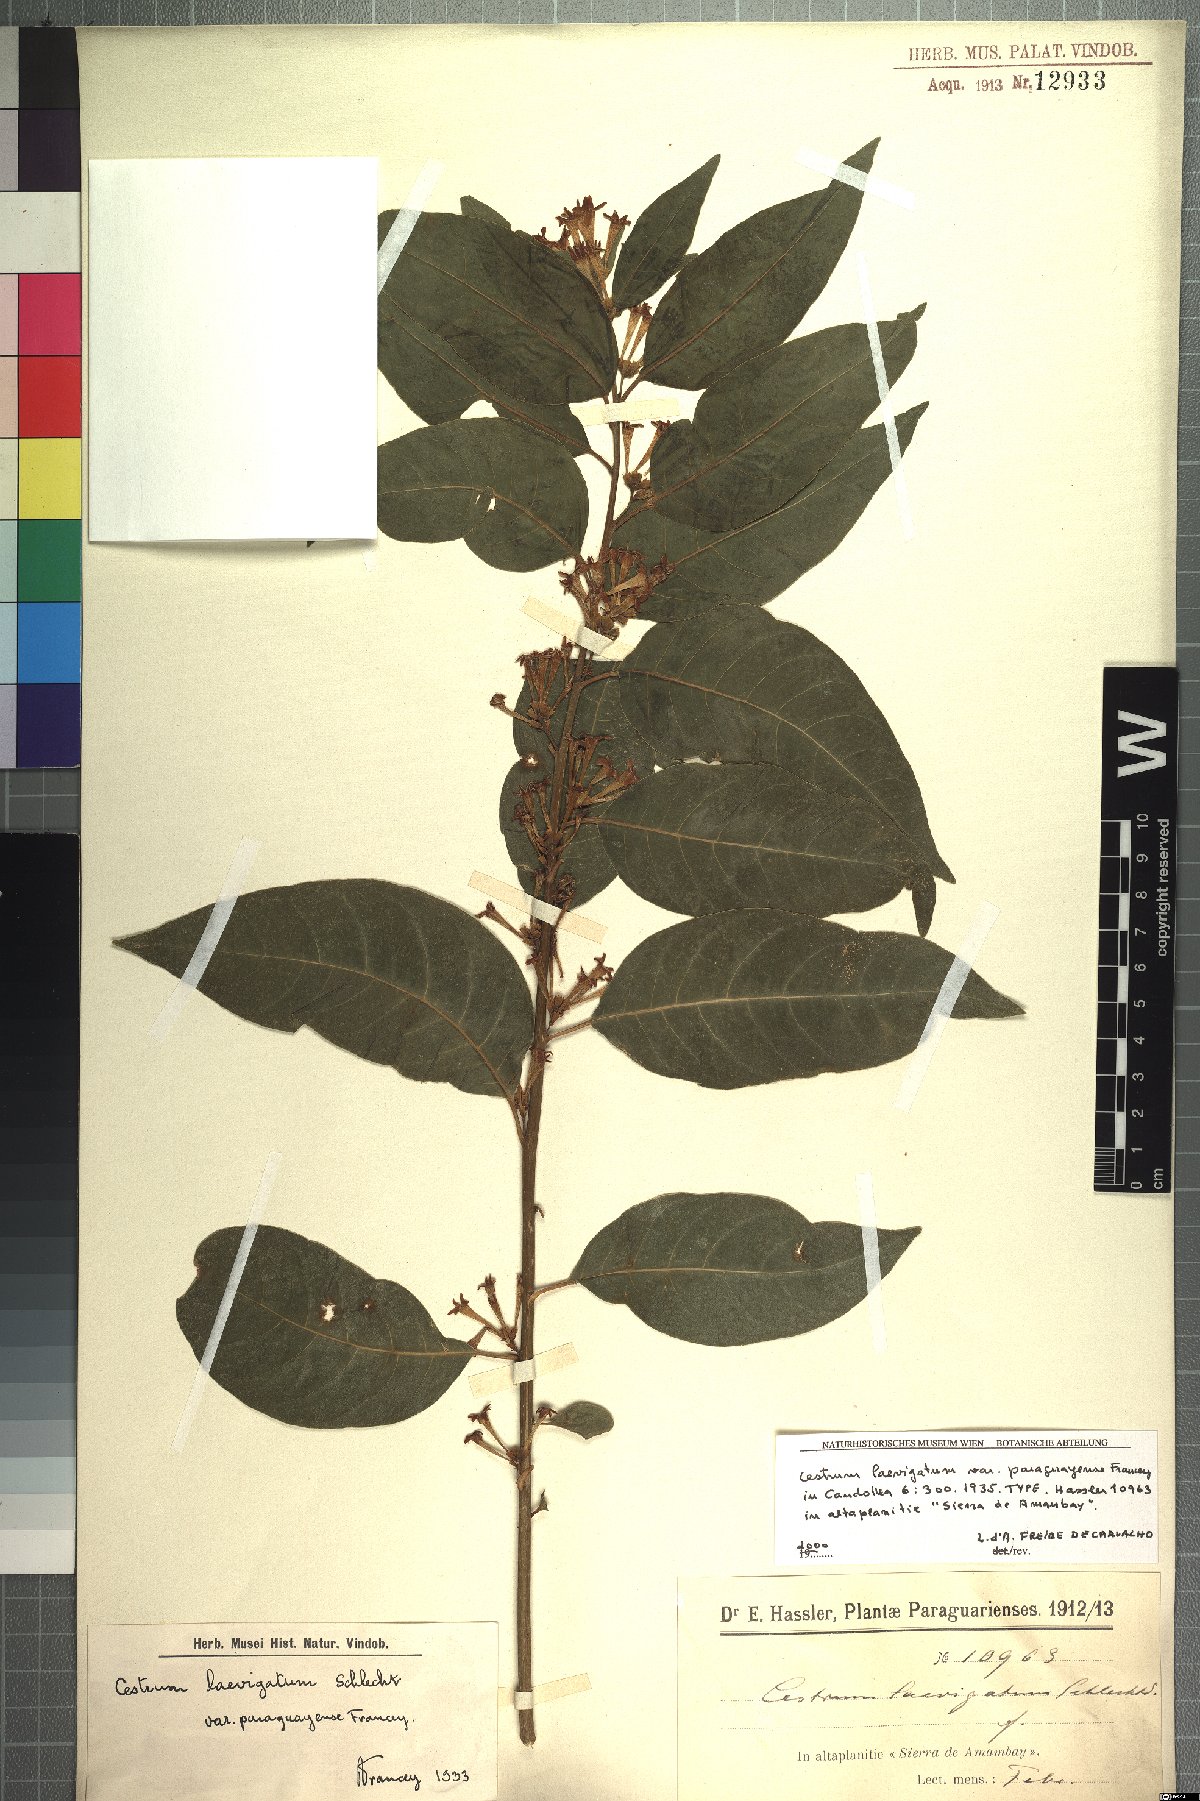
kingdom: Plantae
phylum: Tracheophyta
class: Magnoliopsida
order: Solanales
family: Solanaceae
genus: Cestrum
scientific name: Cestrum laevigatum
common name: Inkberry
